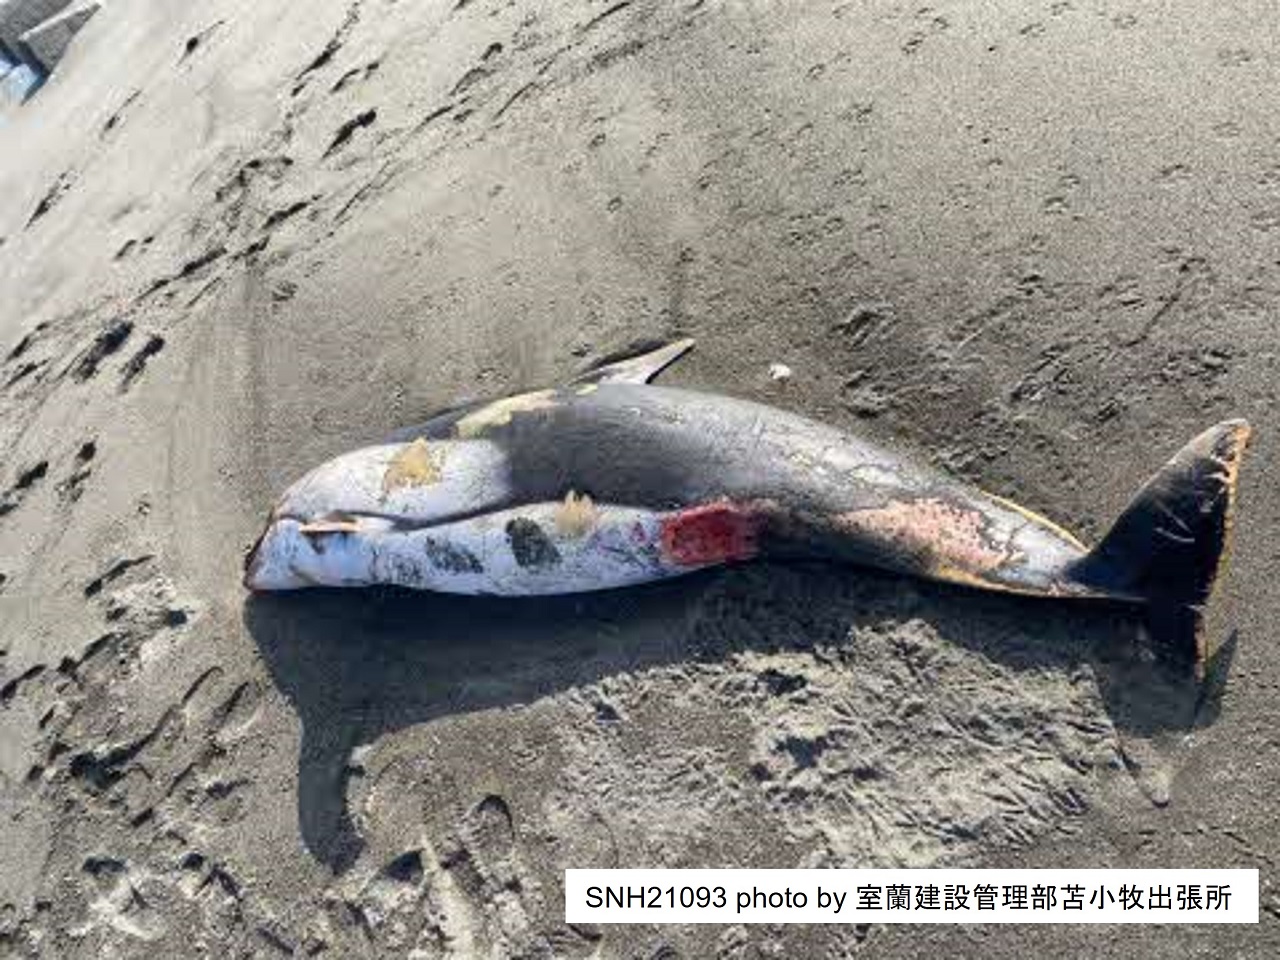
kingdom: Animalia
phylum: Chordata
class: Mammalia
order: Cetacea
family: Delphinidae
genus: Lagenorhynchus
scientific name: Lagenorhynchus obliquidens
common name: Pacific white-sided dolphin
